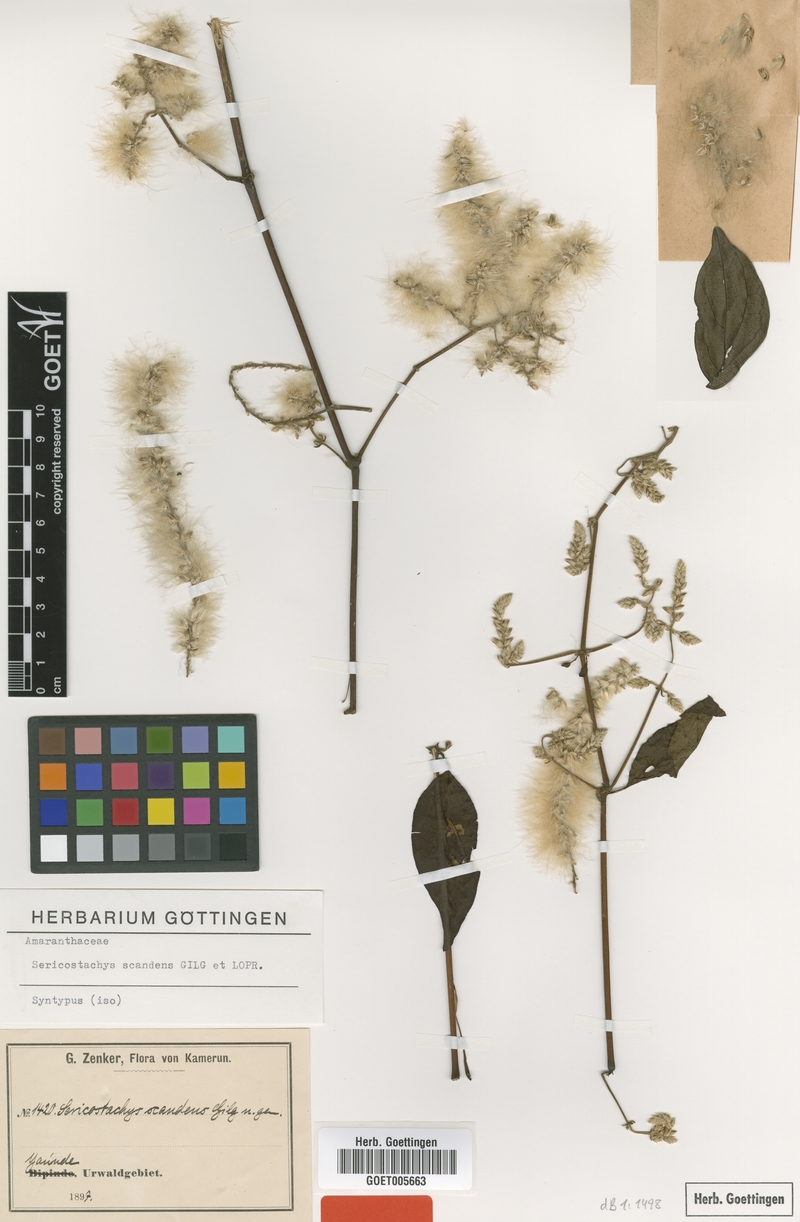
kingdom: Plantae
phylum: Tracheophyta
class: Magnoliopsida
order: Caryophyllales
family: Amaranthaceae
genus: Sericostachys
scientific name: Sericostachys scandens
